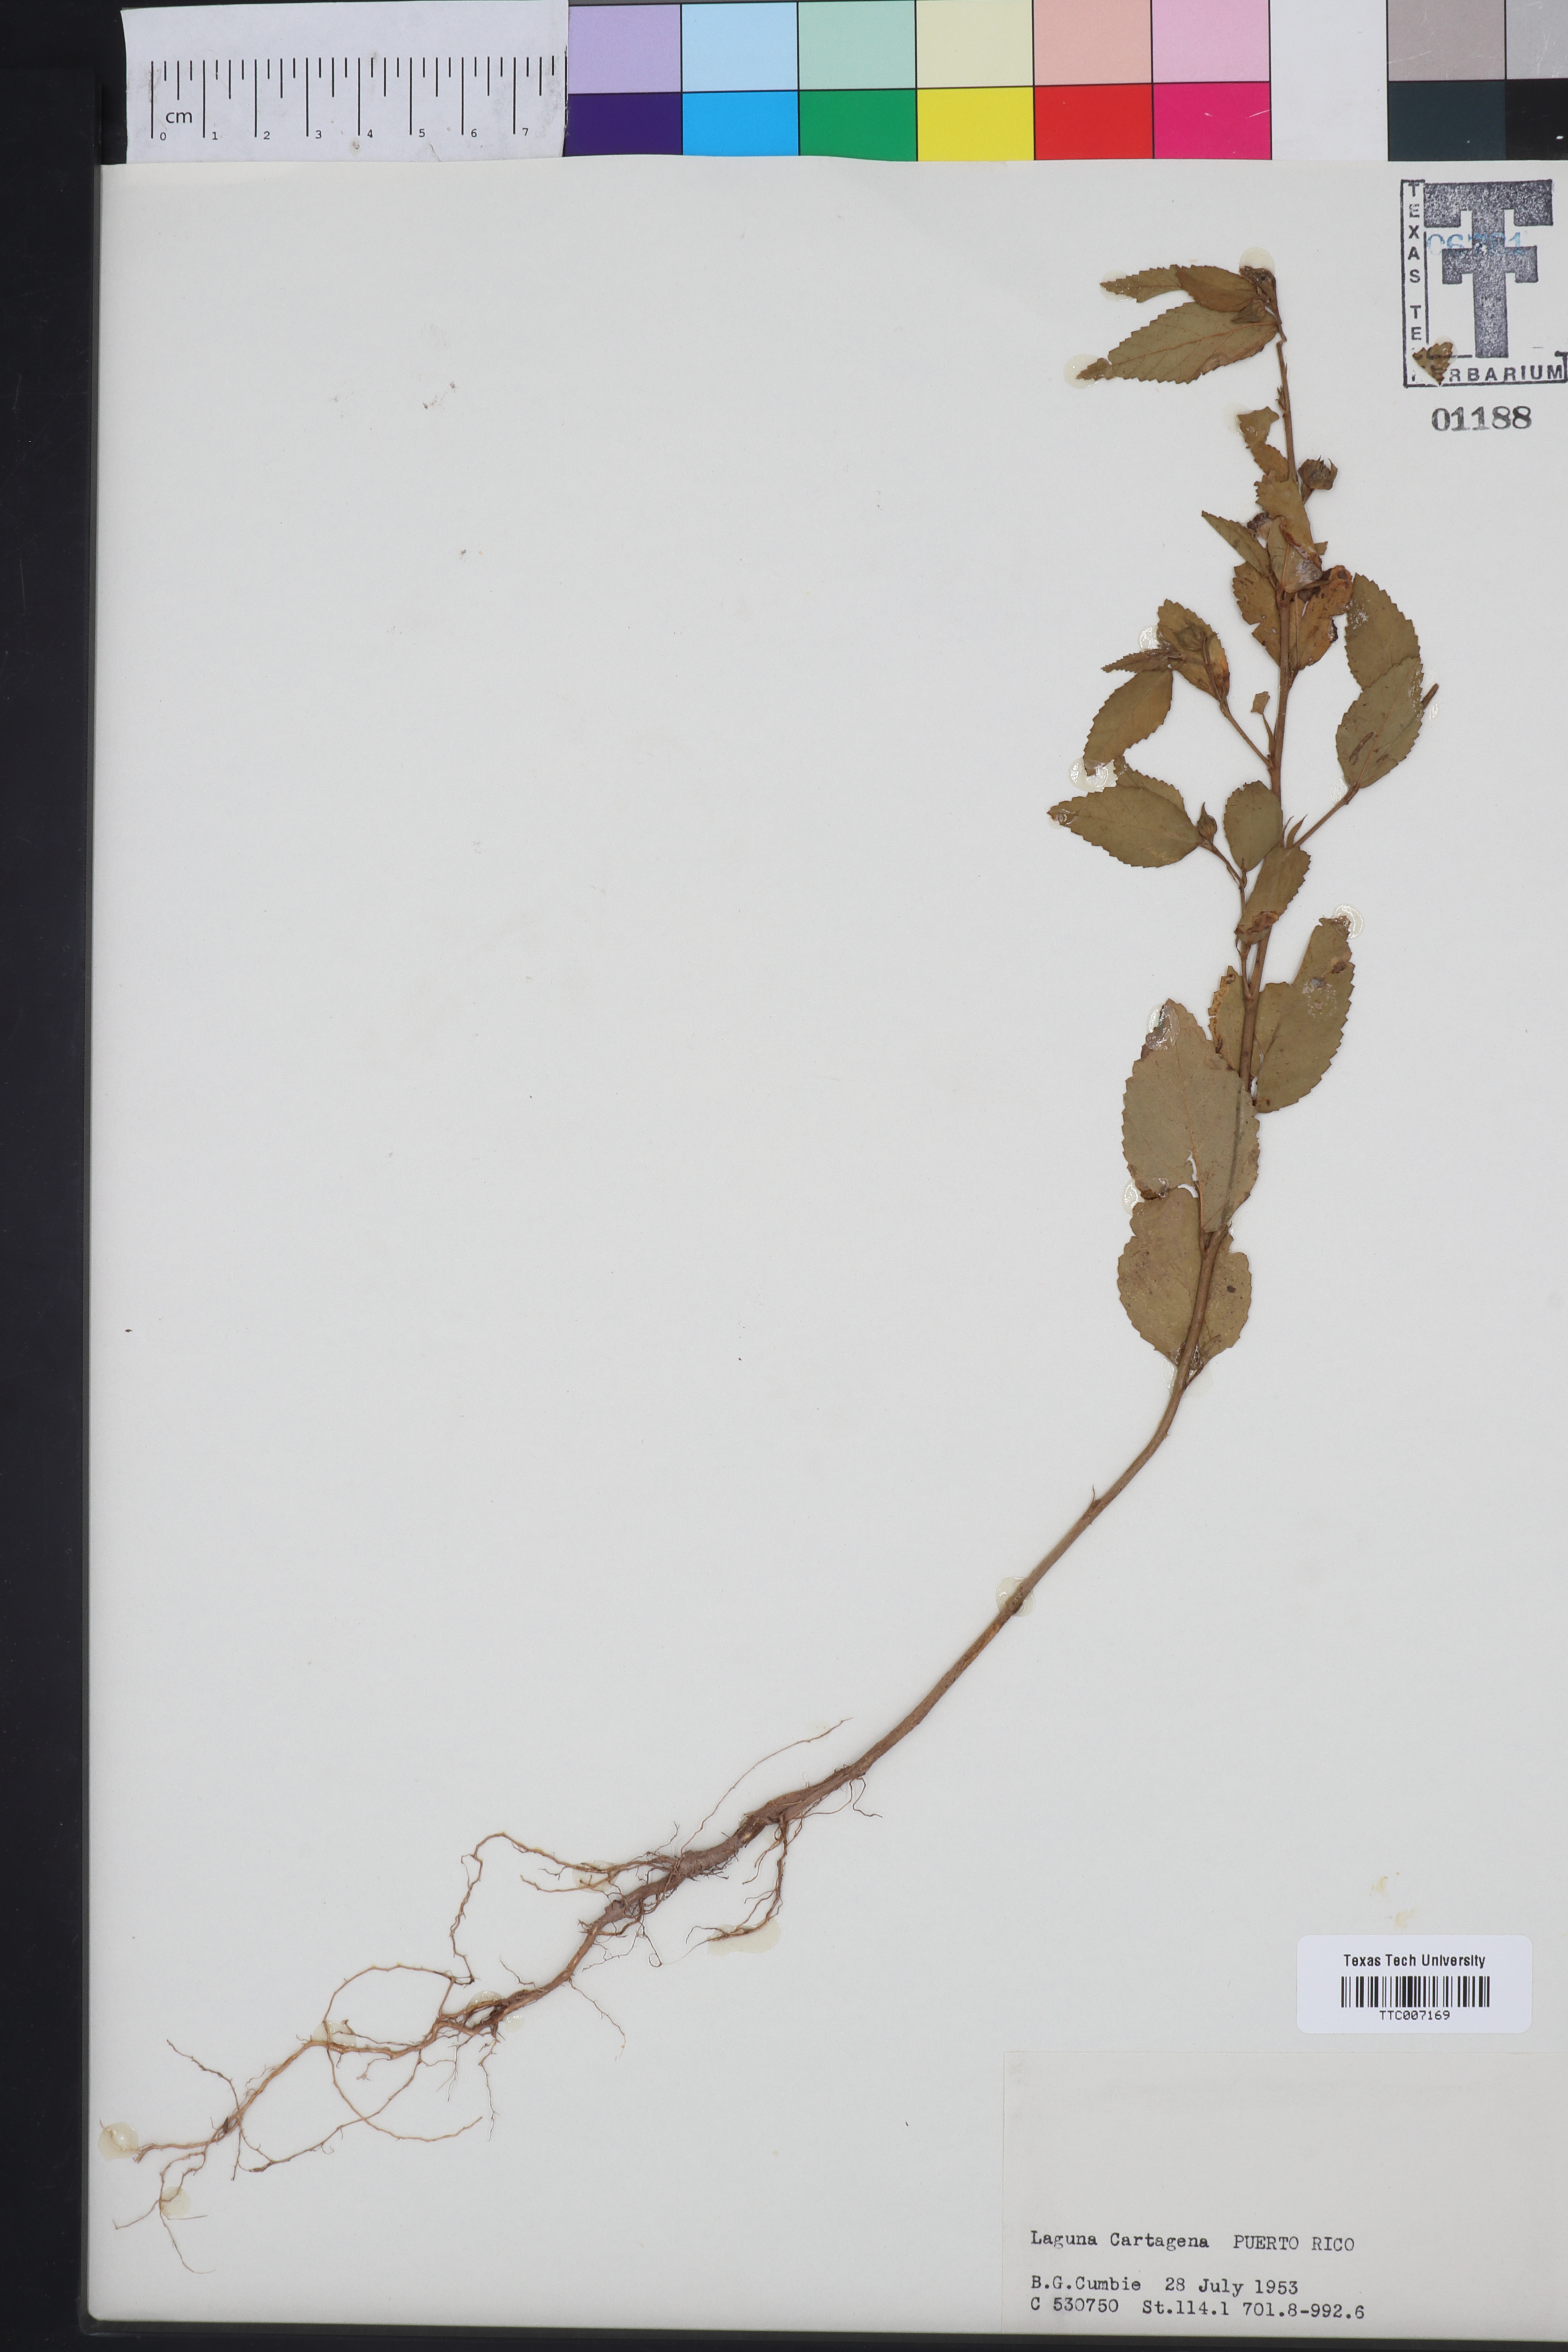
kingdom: Plantae
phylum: Tracheophyta
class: Magnoliopsida
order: Caryophyllales
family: Caryophyllaceae
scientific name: Caryophyllaceae
